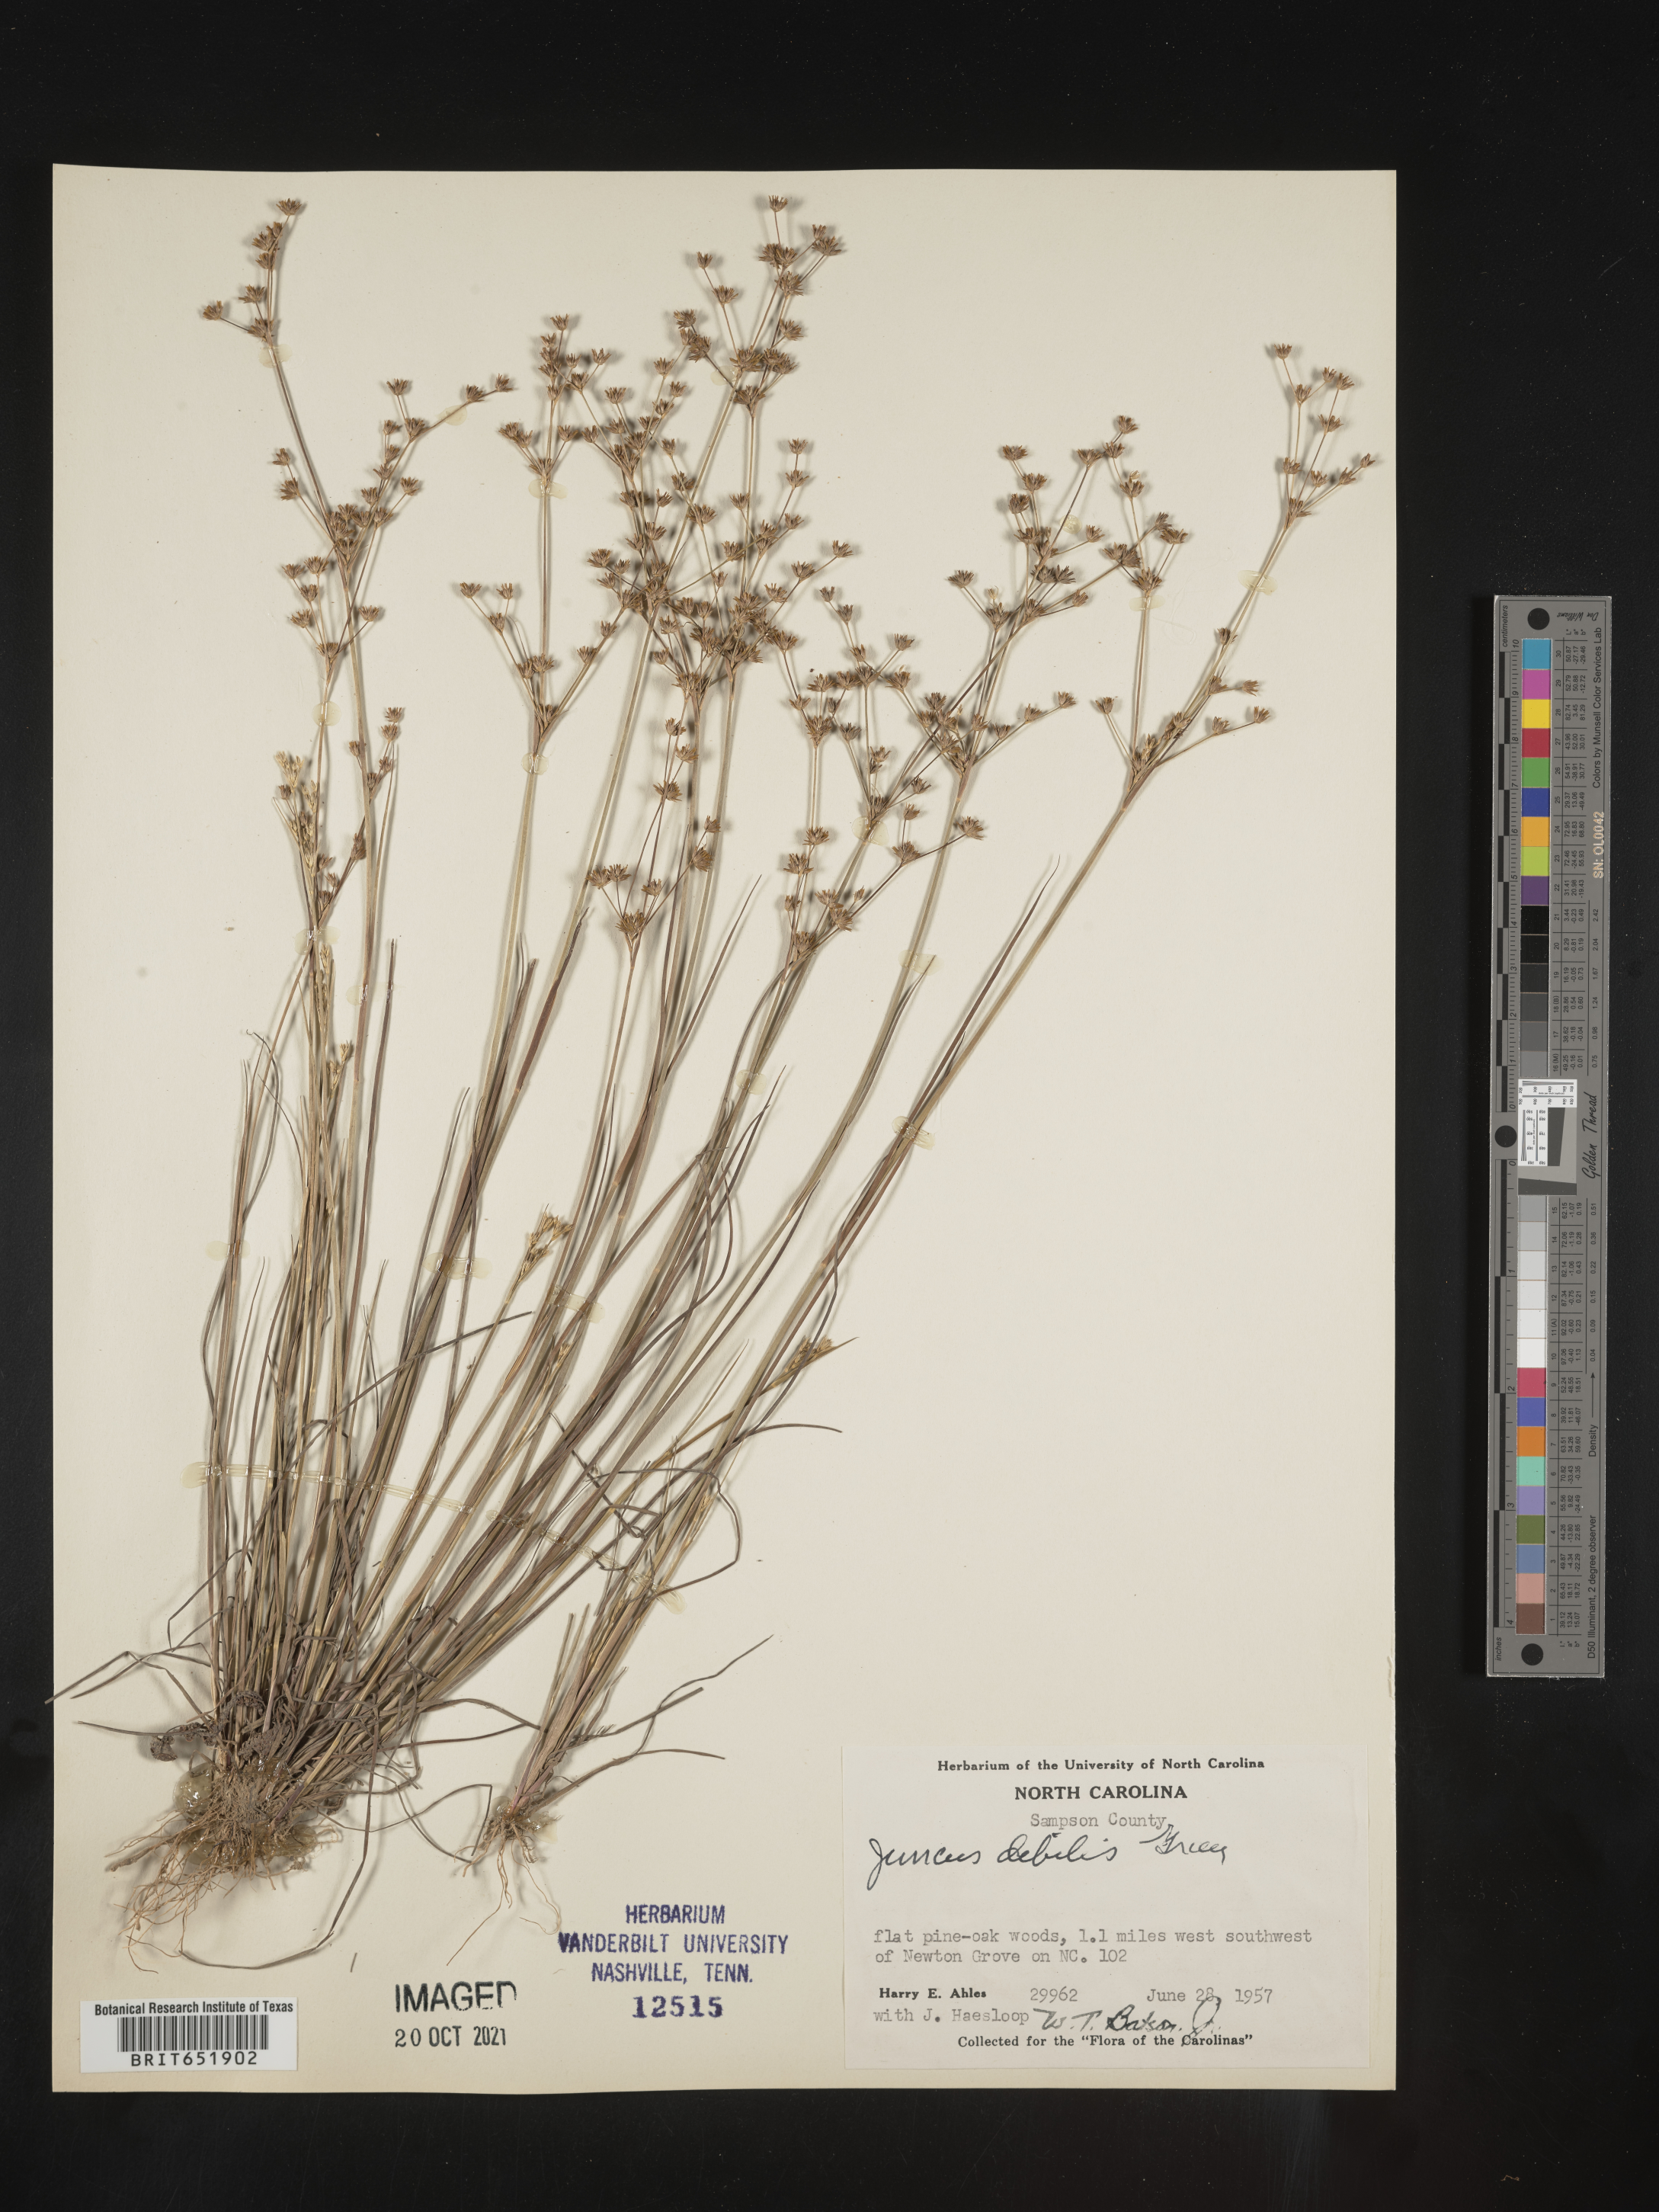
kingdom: Plantae
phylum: Tracheophyta
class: Liliopsida
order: Poales
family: Juncaceae
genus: Juncus
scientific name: Juncus debilis
